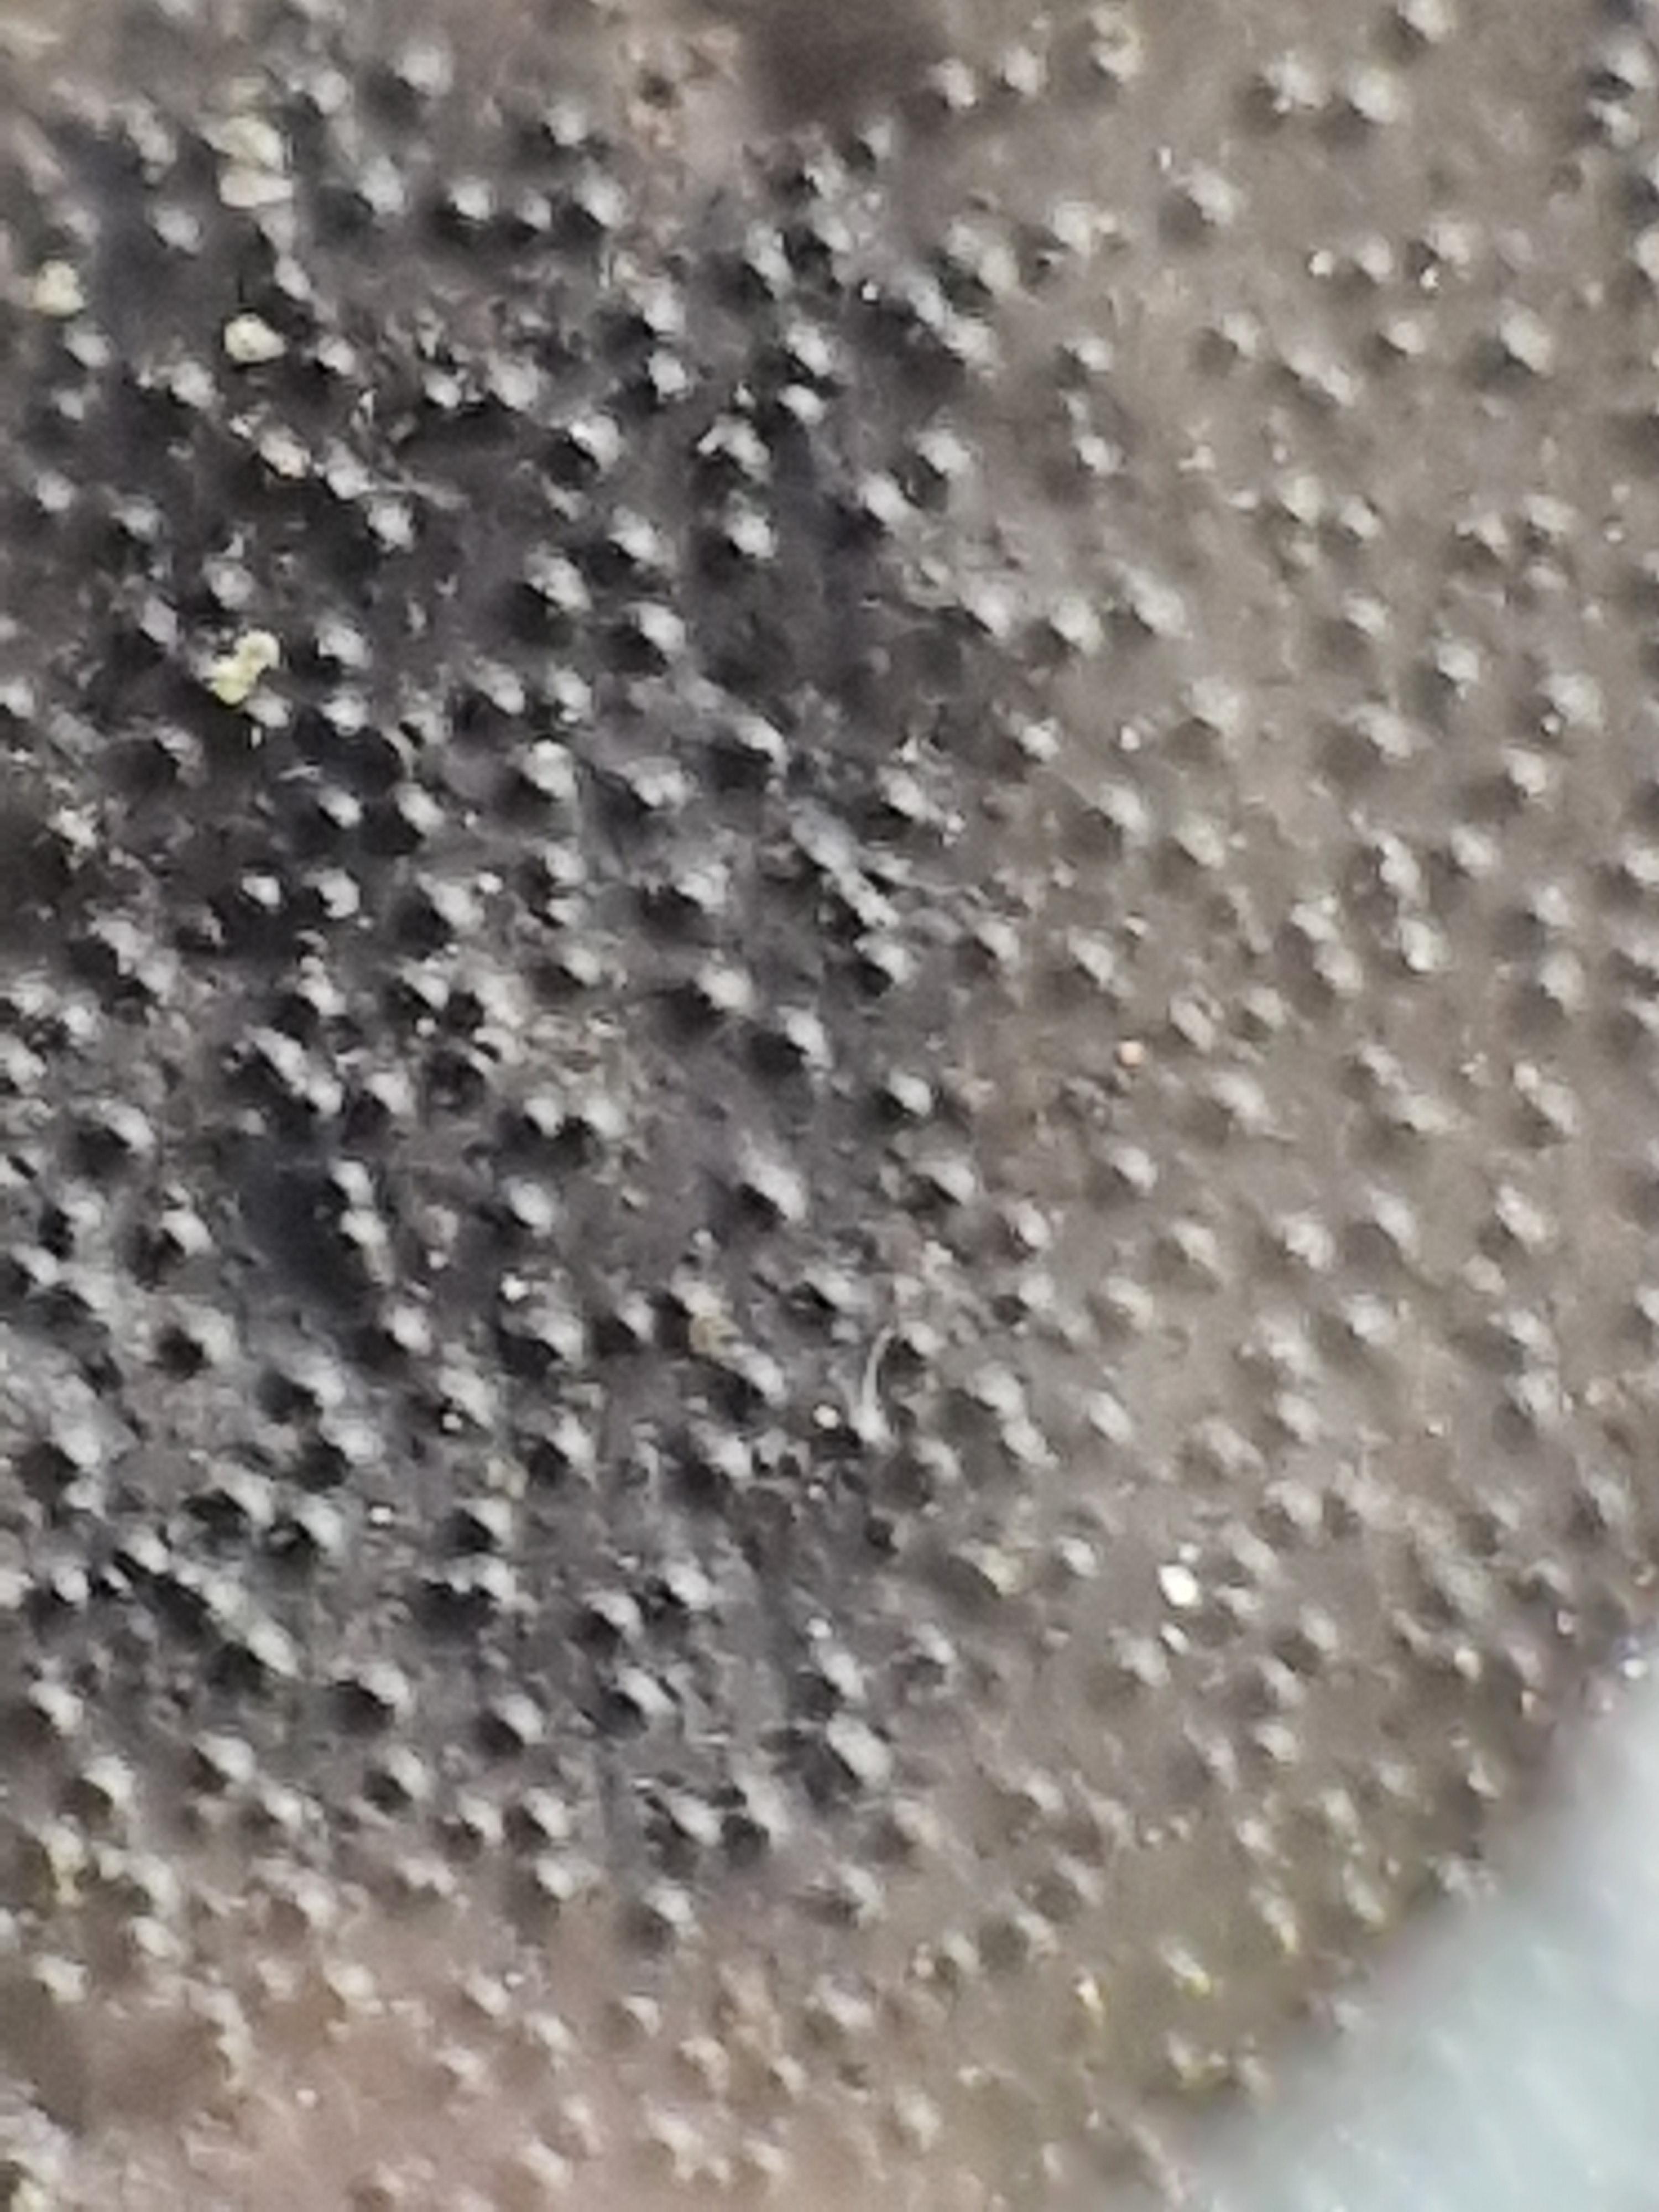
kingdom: Fungi
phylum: Ascomycota
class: Sordariomycetes
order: Xylariales
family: Graphostromataceae
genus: Biscogniauxia
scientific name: Biscogniauxia mediterranea
